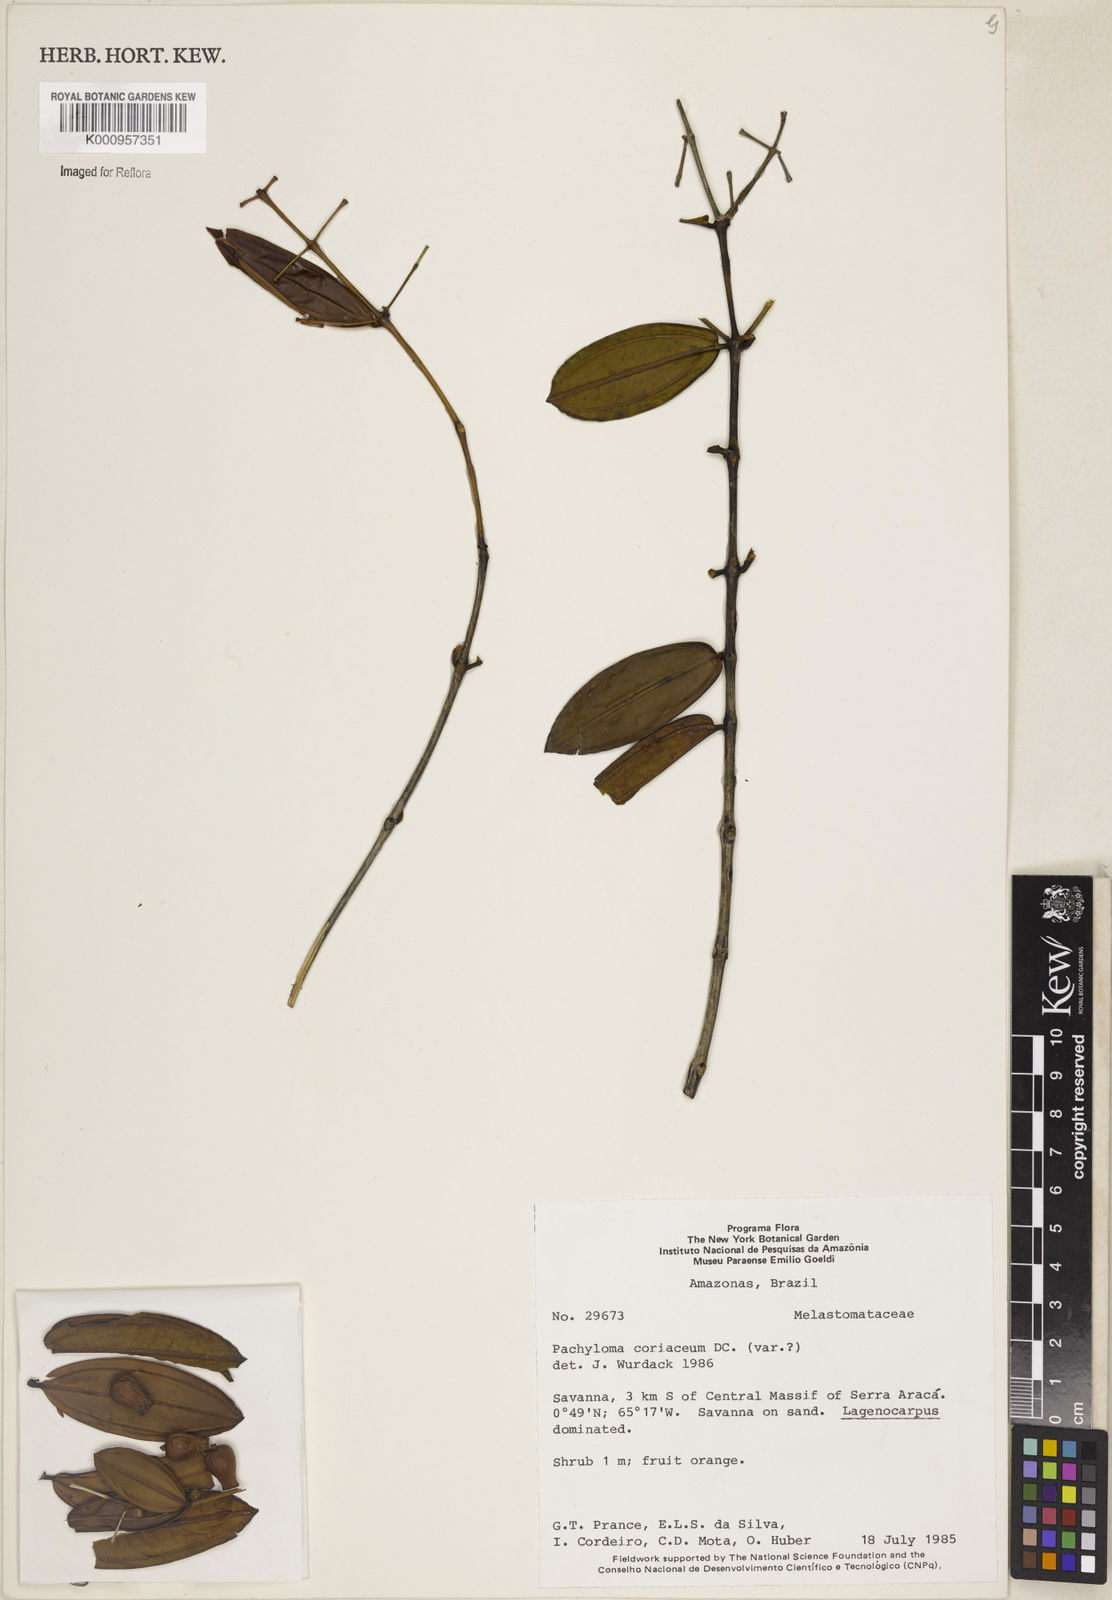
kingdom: Plantae
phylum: Tracheophyta
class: Magnoliopsida
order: Myrtales
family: Melastomataceae
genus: Pachyloma
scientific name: Pachyloma coriaceum
